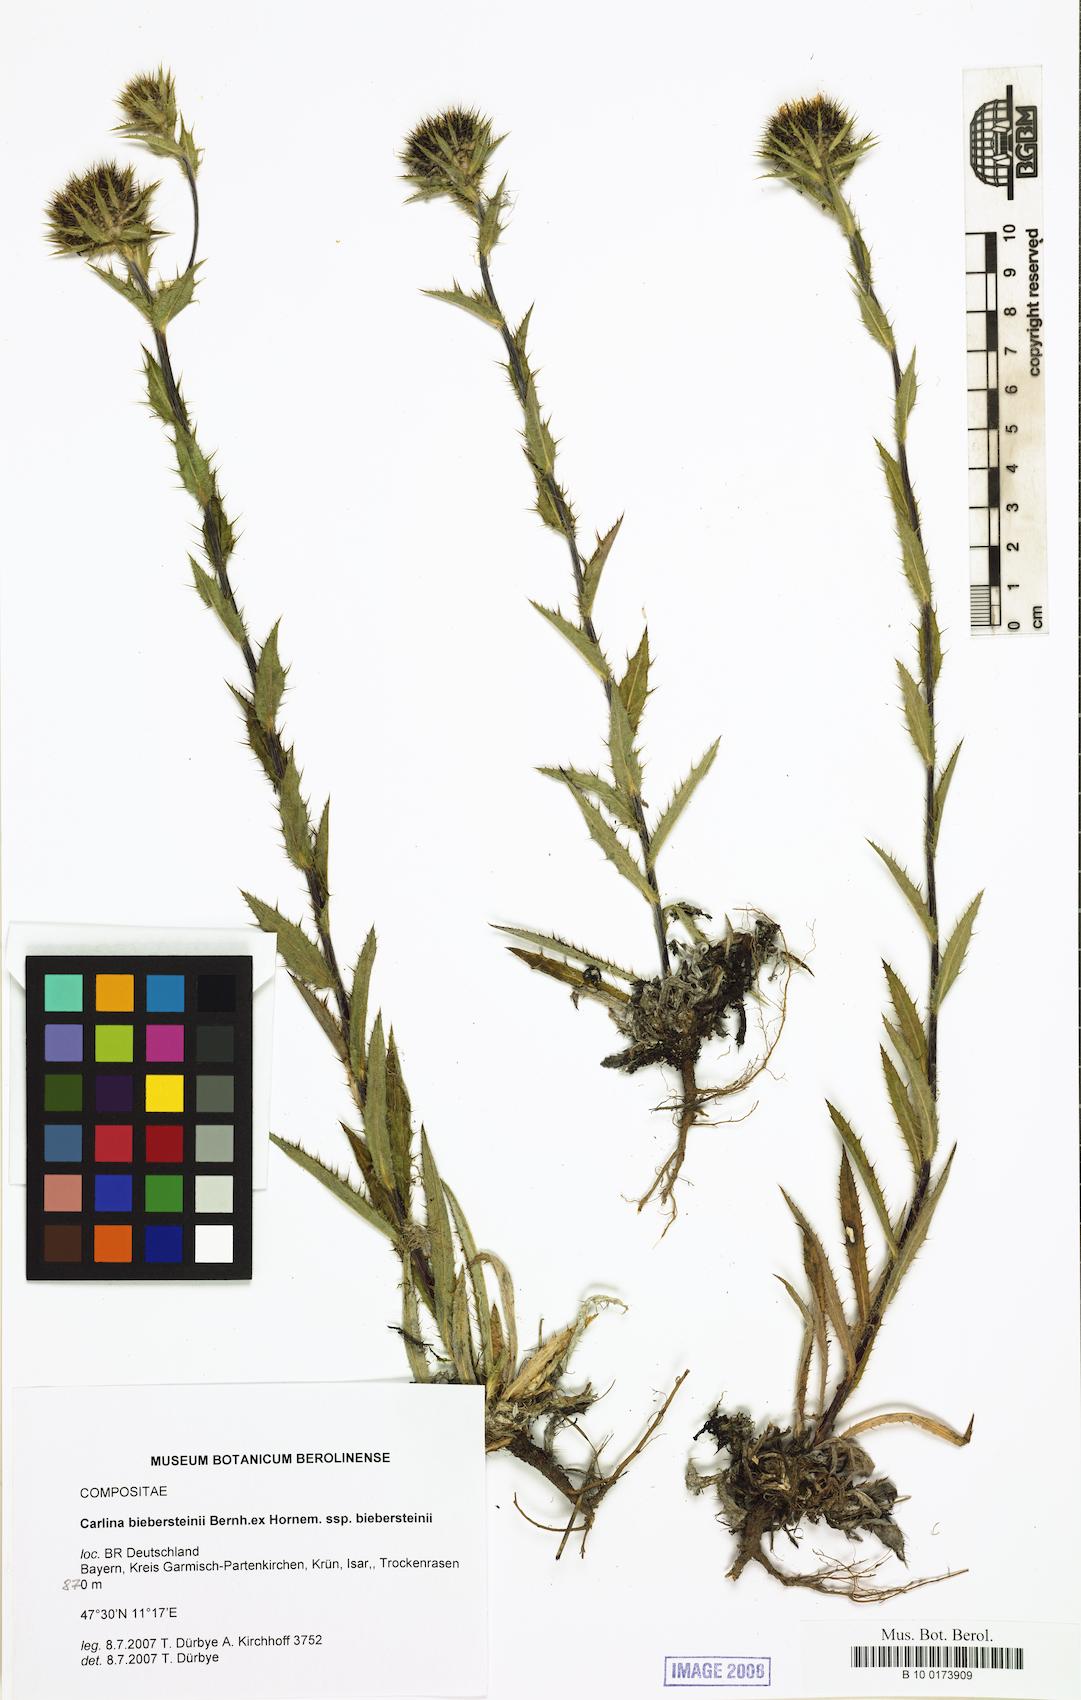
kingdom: Plantae
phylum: Tracheophyta
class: Magnoliopsida
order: Asterales
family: Asteraceae
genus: Carlina
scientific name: Carlina biebersteinii
